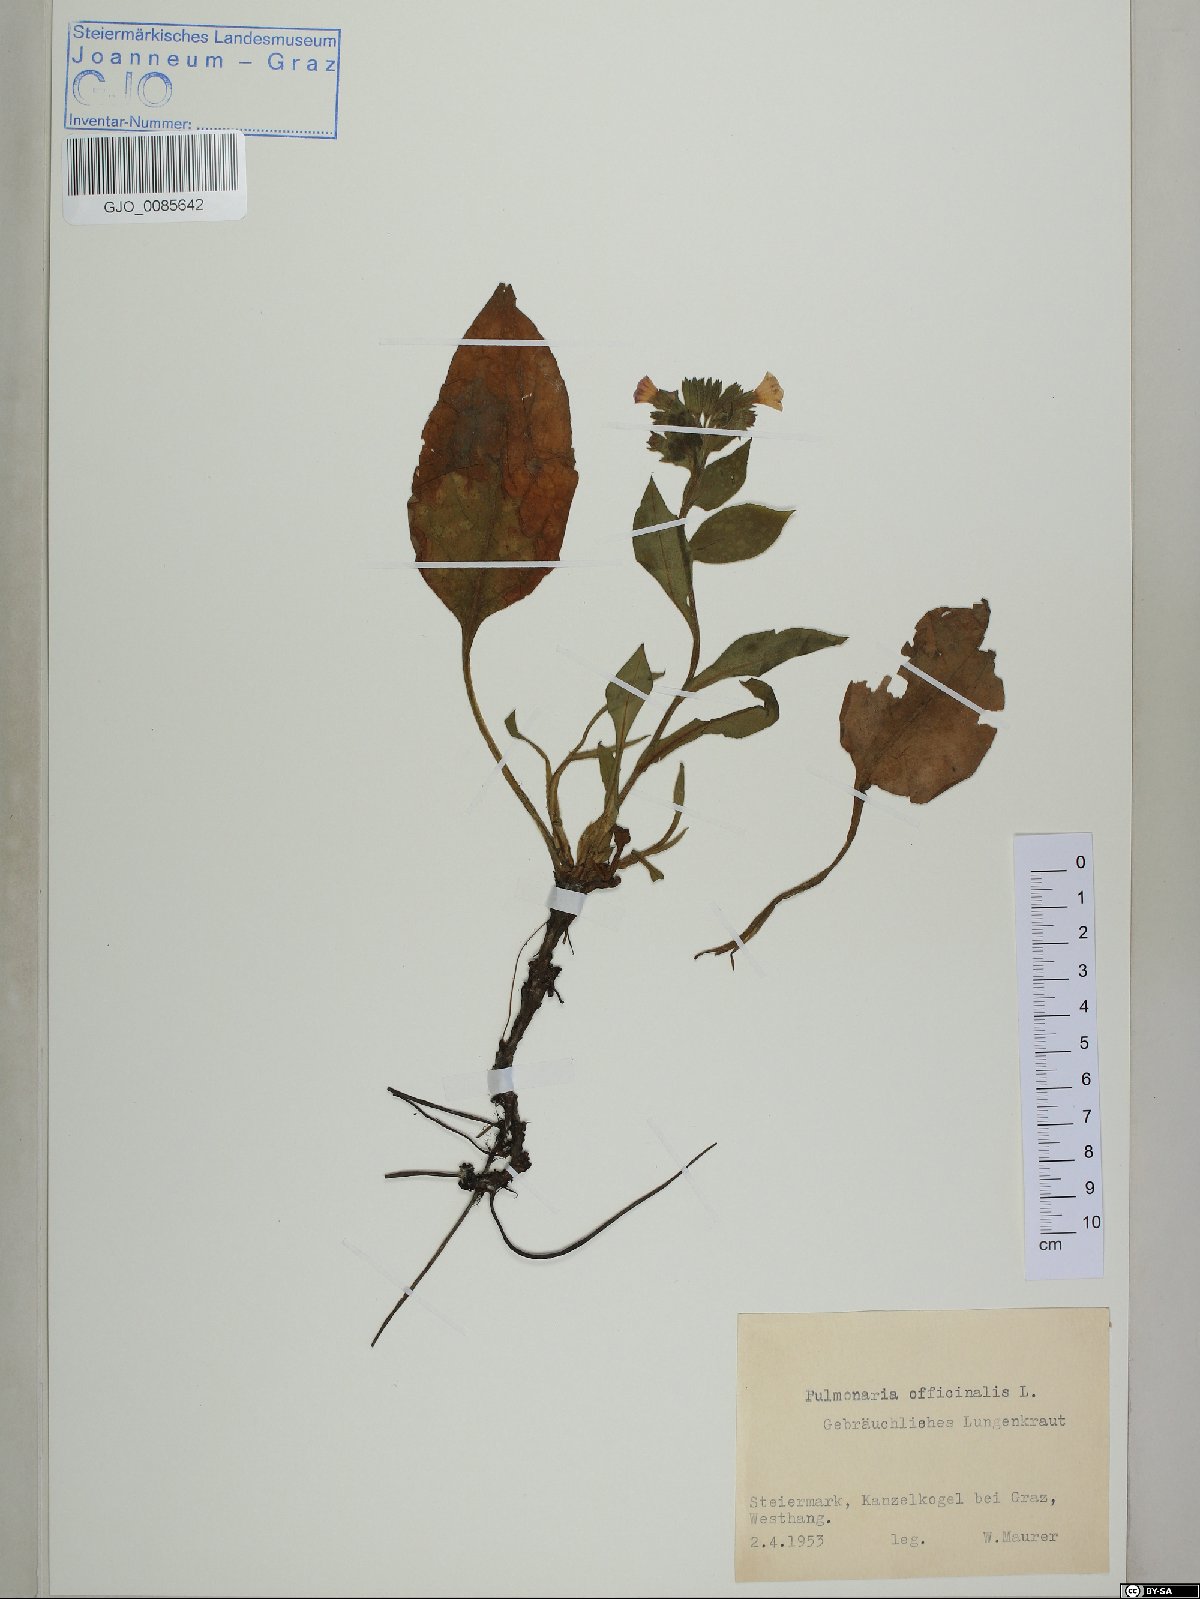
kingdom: Plantae
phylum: Tracheophyta
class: Magnoliopsida
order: Boraginales
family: Boraginaceae
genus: Pulmonaria
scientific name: Pulmonaria officinalis
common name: Lungwort
